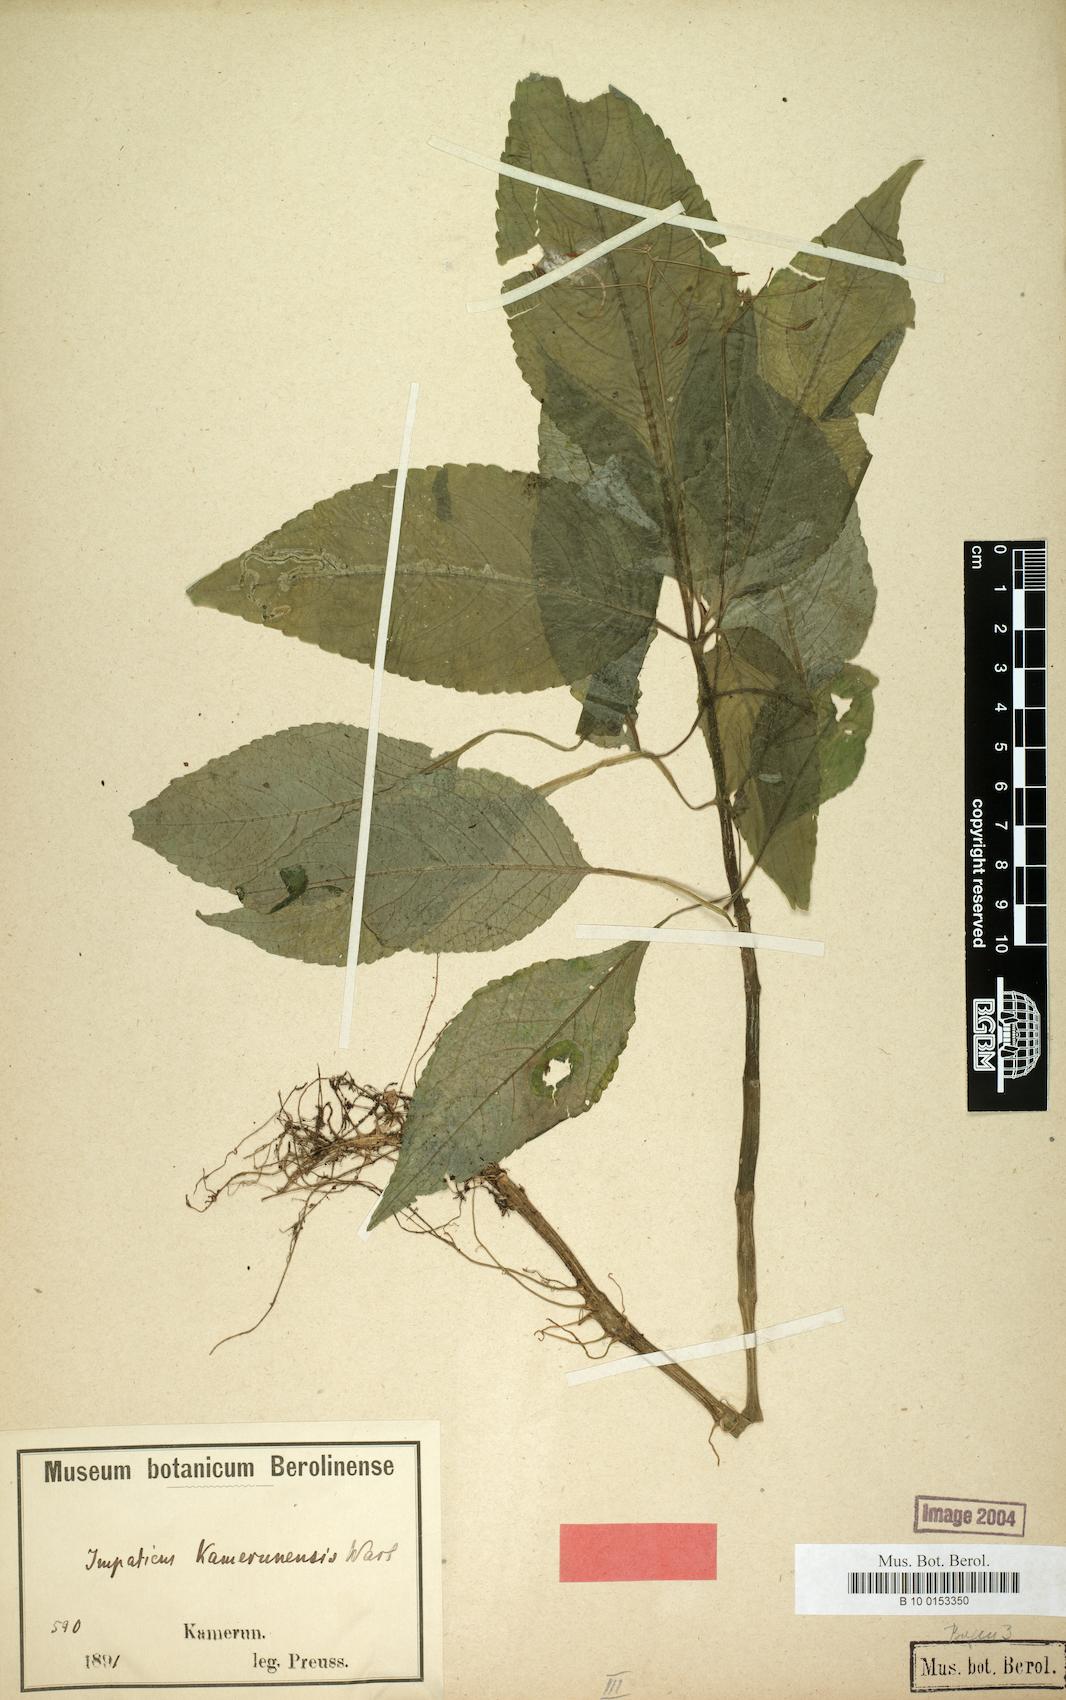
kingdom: Plantae
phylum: Tracheophyta
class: Magnoliopsida
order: Ericales
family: Balsaminaceae
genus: Impatiens
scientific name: Impatiens kamerunensis
